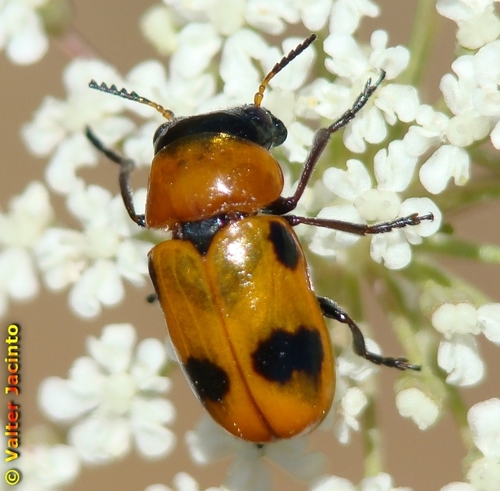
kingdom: Animalia
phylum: Arthropoda
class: Insecta
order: Coleoptera
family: Chrysomelidae
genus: Coptocephala
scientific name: Coptocephala scopolina
